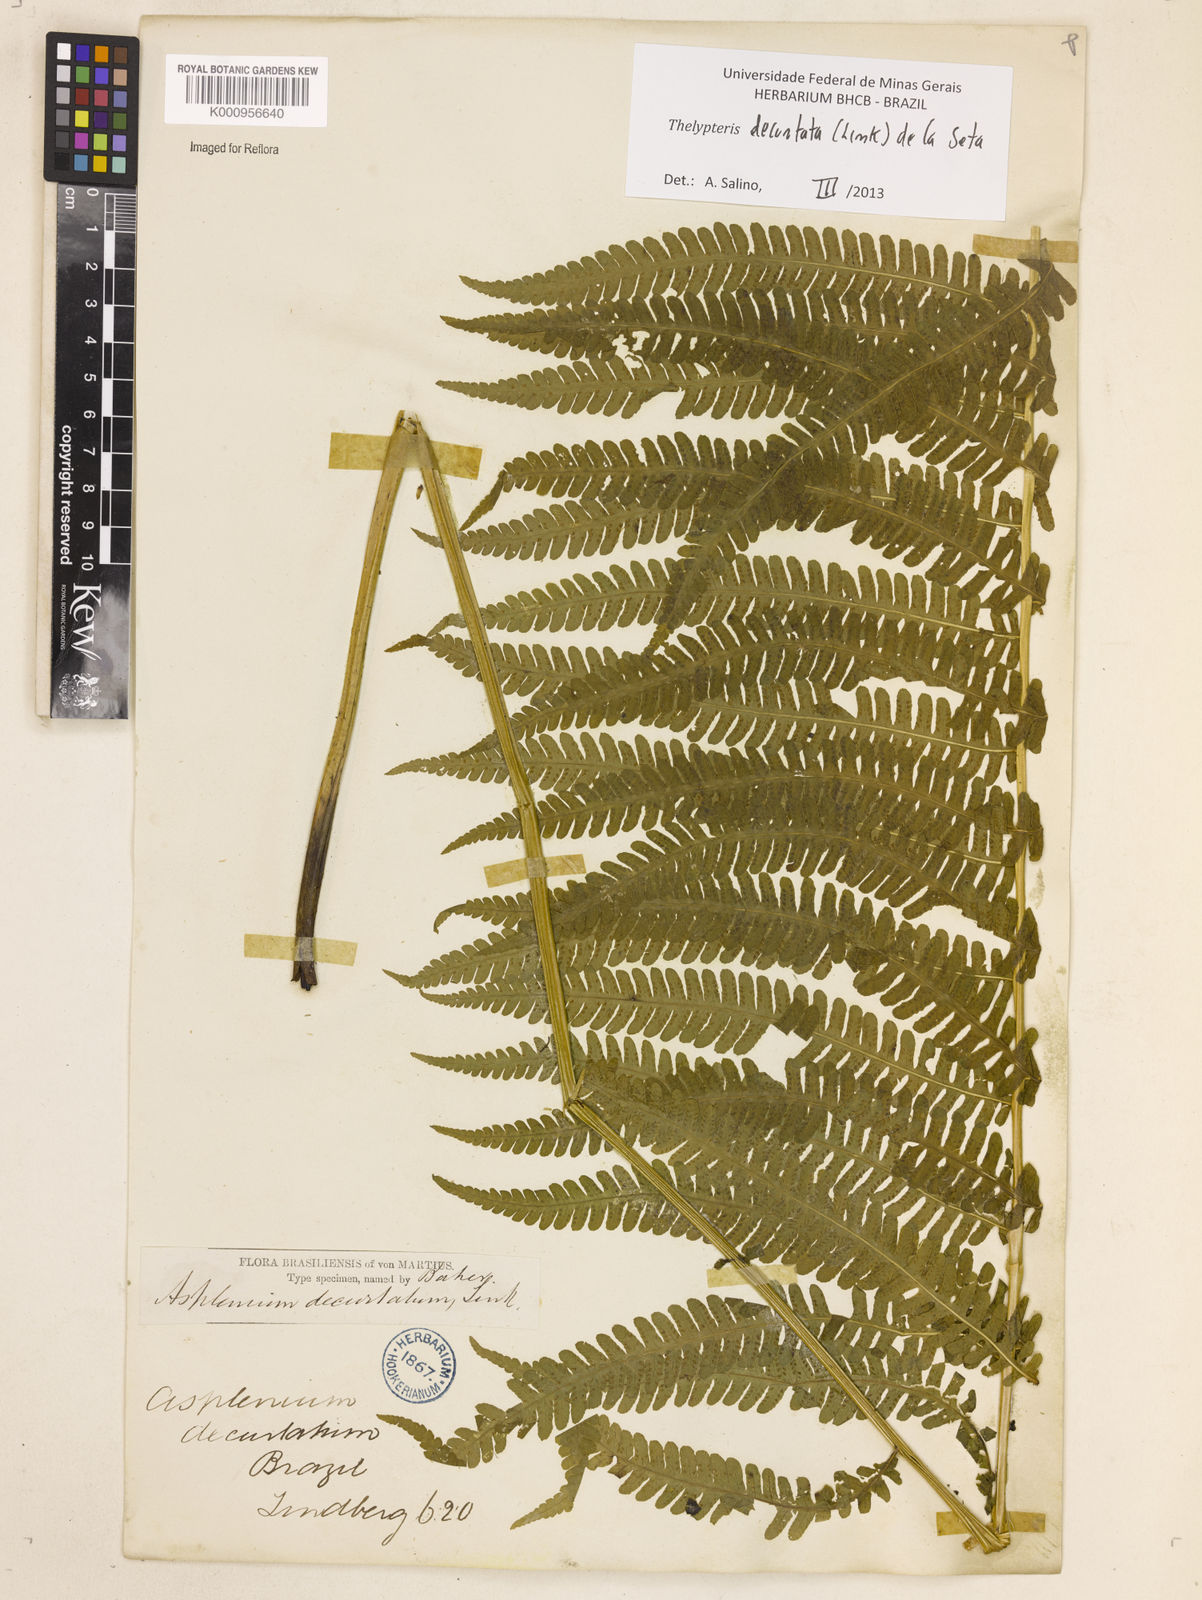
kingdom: Plantae
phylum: Tracheophyta
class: Polypodiopsida
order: Polypodiales
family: Thelypteridaceae
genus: Amauropelta
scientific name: Amauropelta decurtata
